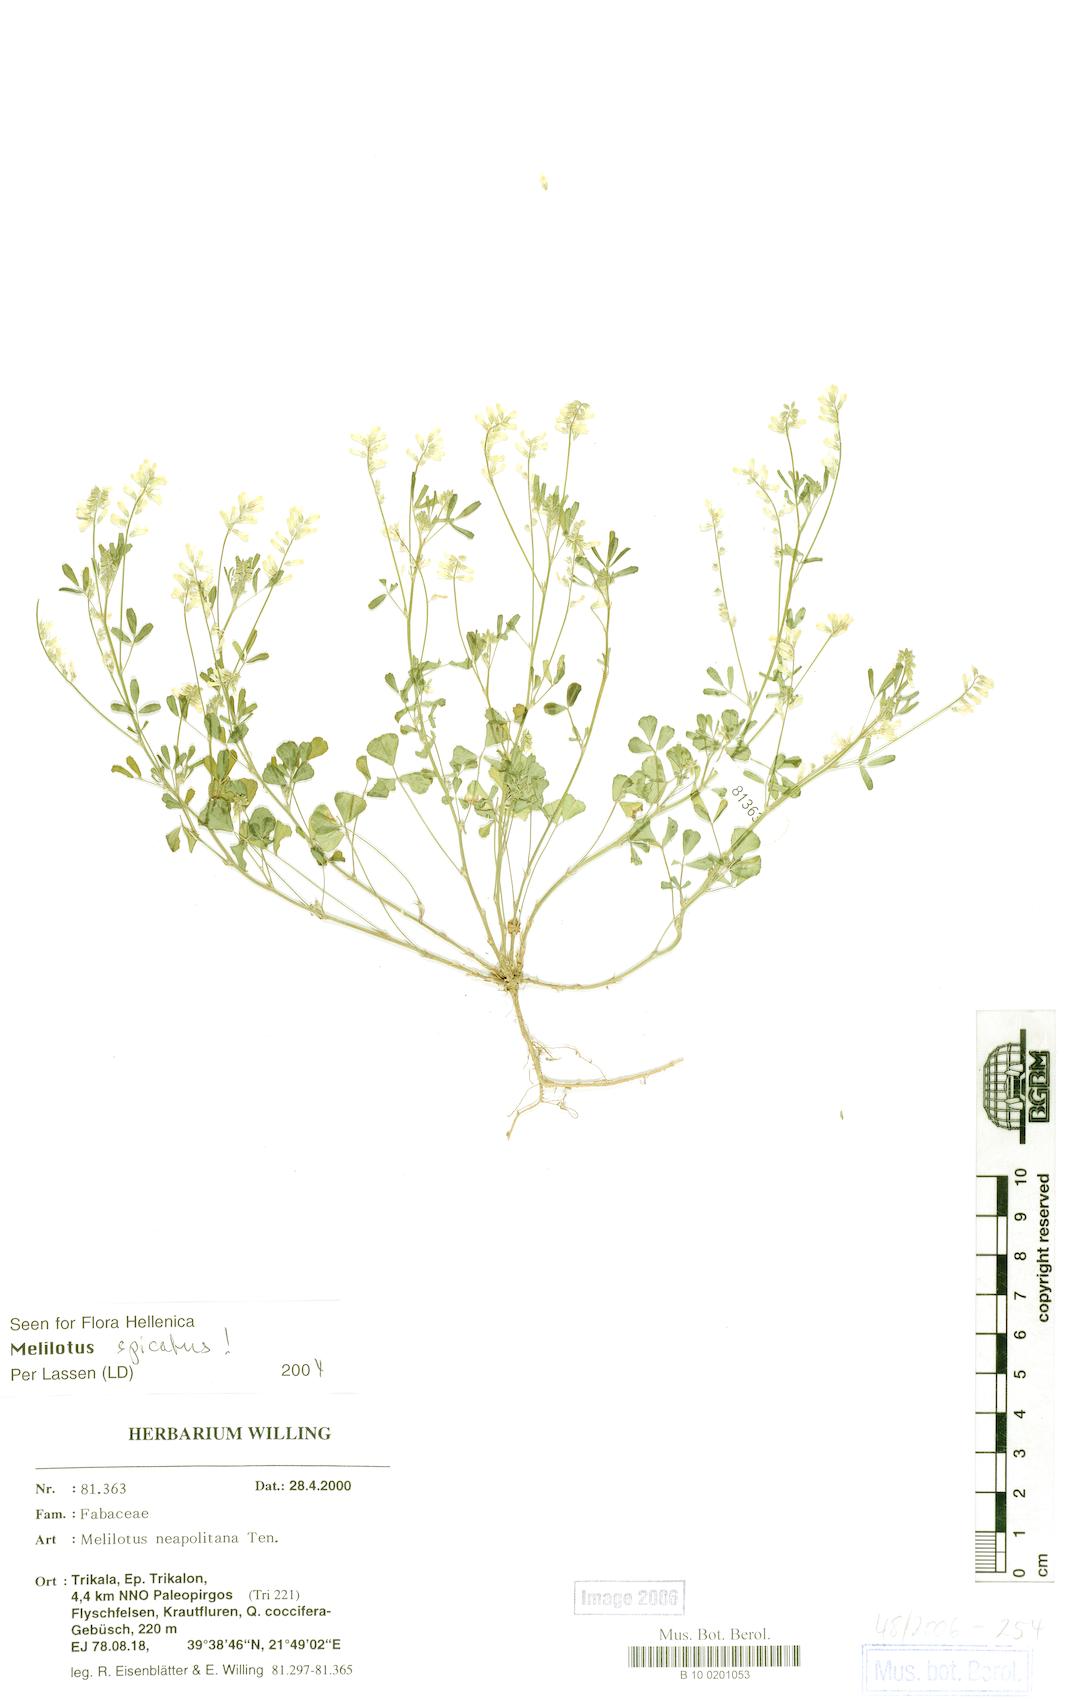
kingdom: Plantae
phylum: Tracheophyta
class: Magnoliopsida
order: Fabales
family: Fabaceae
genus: Melilotus
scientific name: Melilotus neapolitanus
